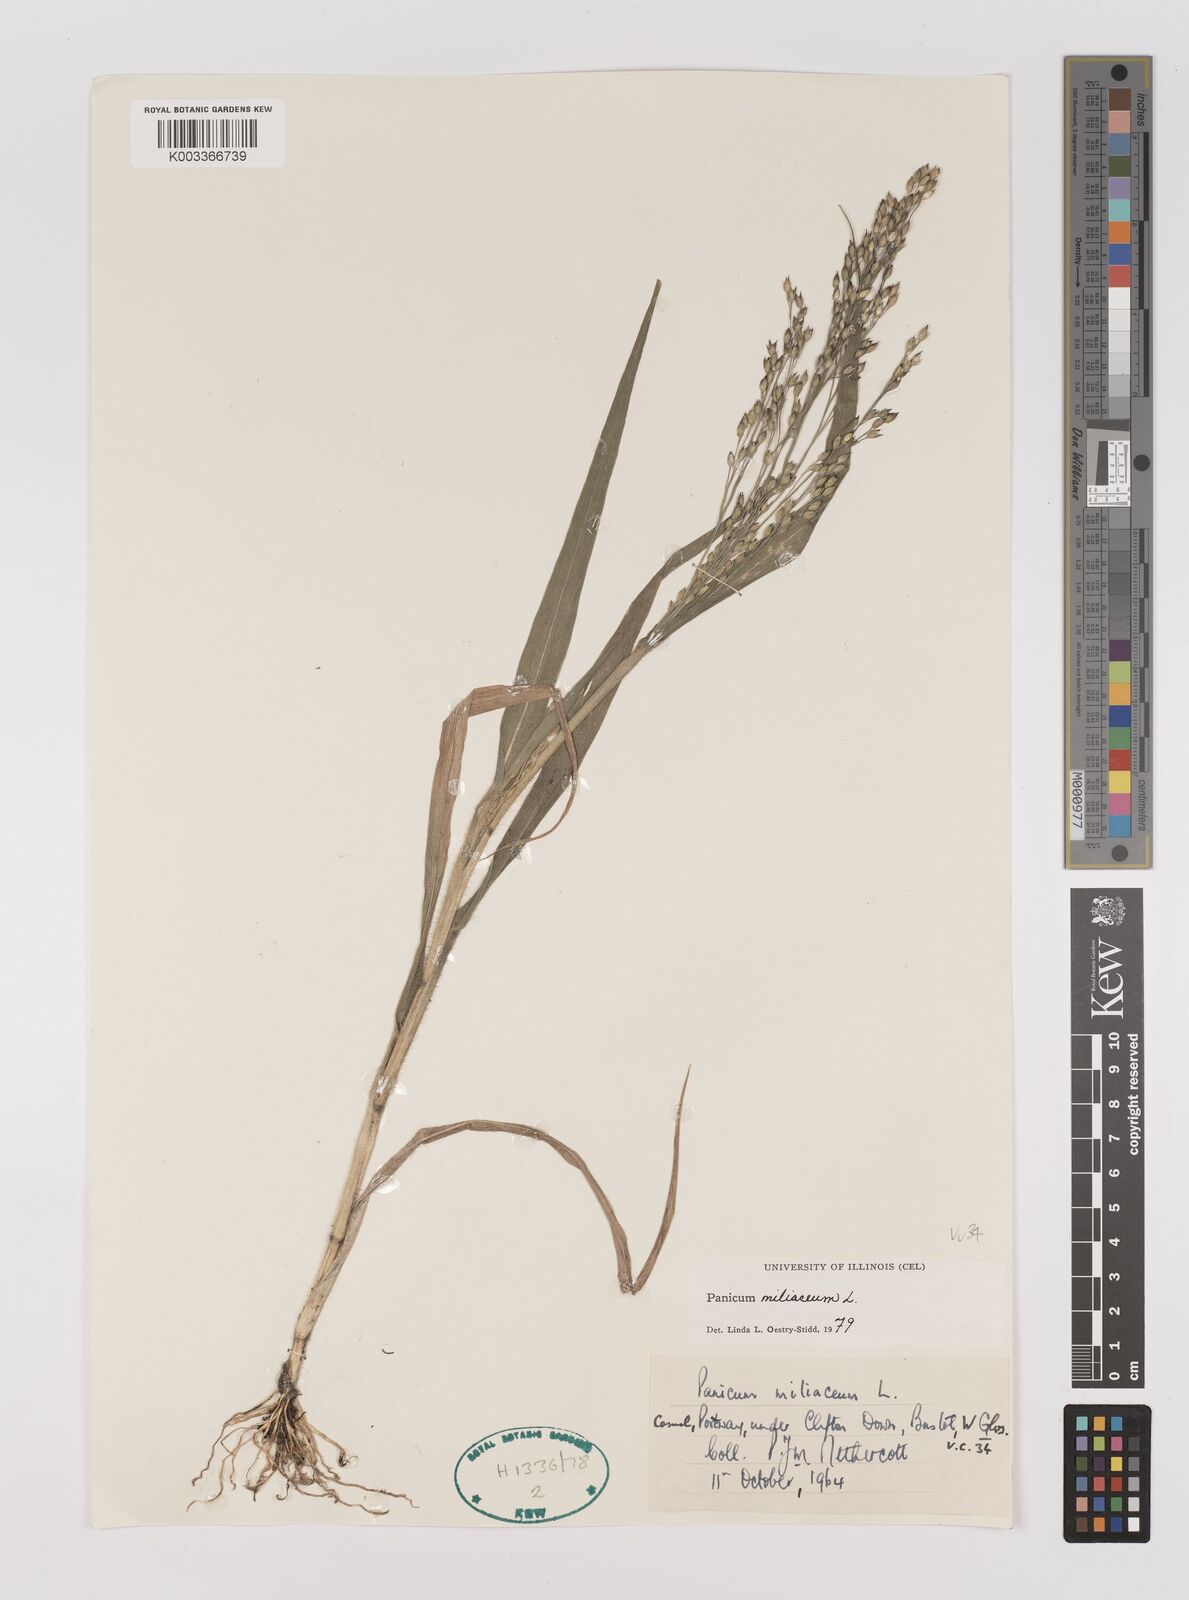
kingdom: Plantae
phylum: Tracheophyta
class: Liliopsida
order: Poales
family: Poaceae
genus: Panicum
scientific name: Panicum miliaceum
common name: Common millet
